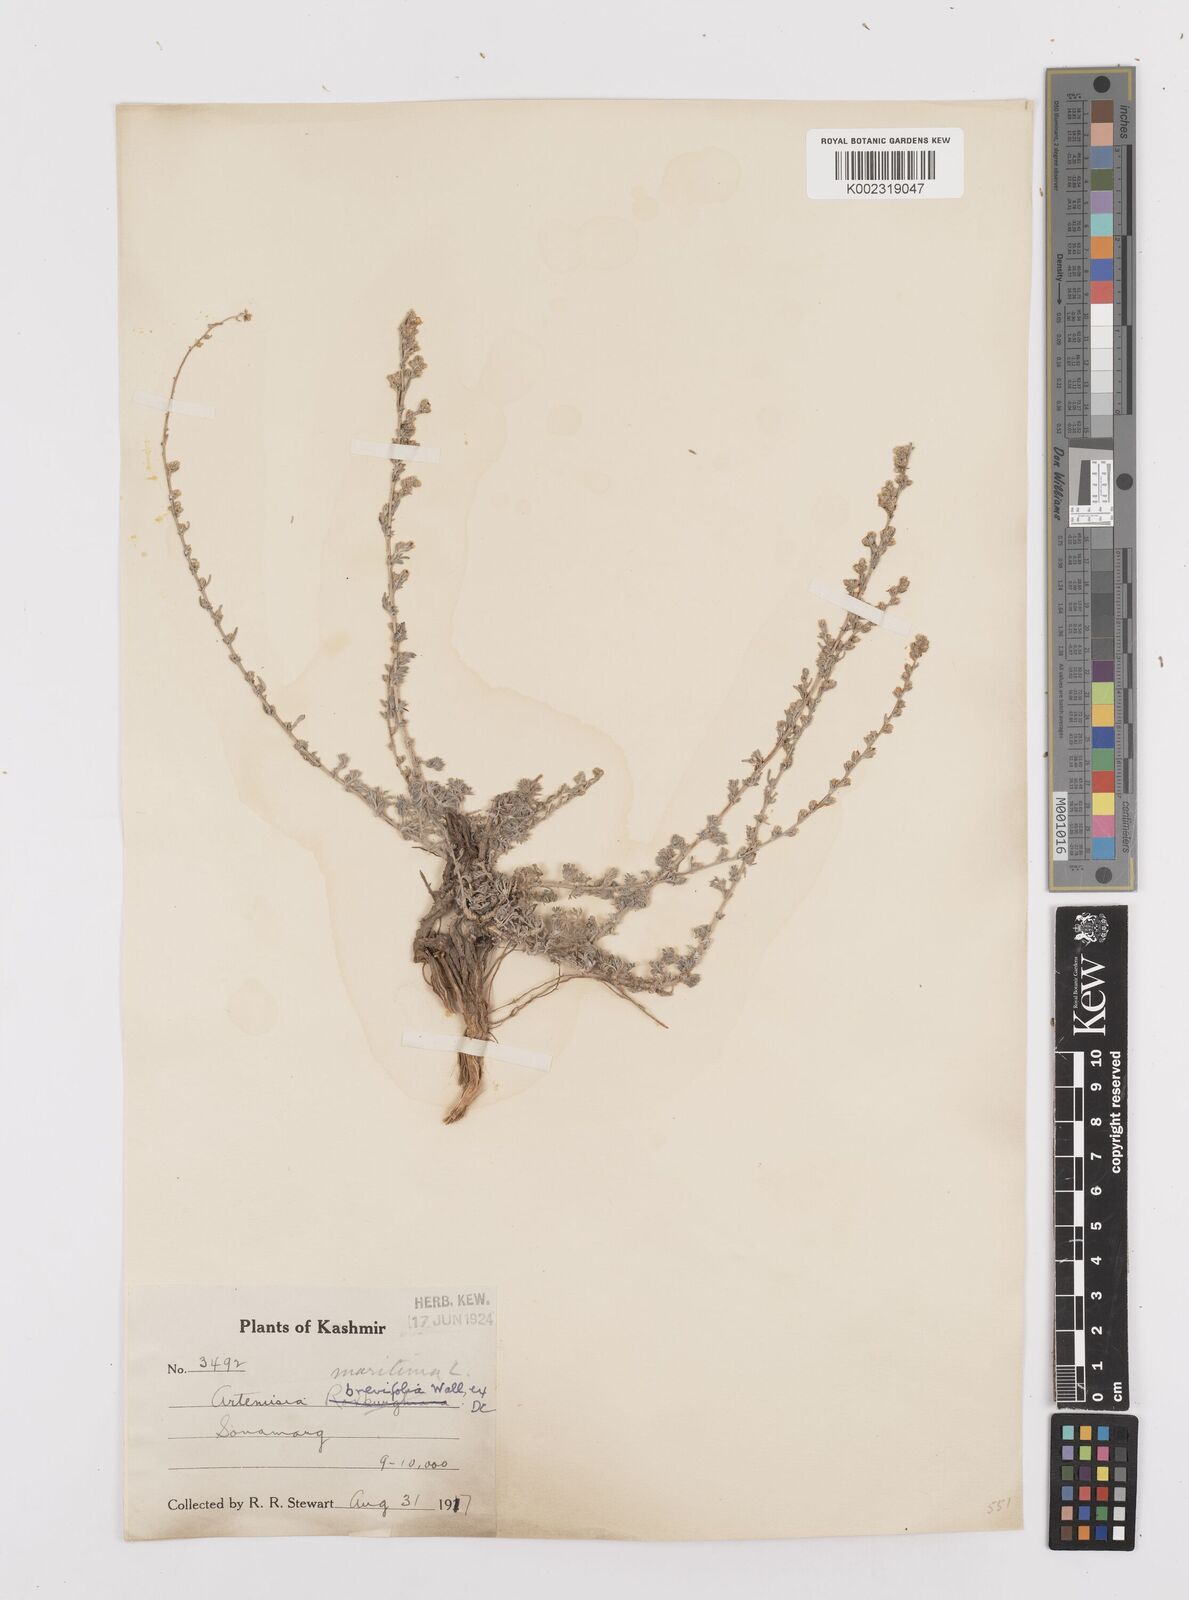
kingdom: Plantae
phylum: Tracheophyta
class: Magnoliopsida
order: Asterales
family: Asteraceae
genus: Artemisia
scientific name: Artemisia brevifolia
